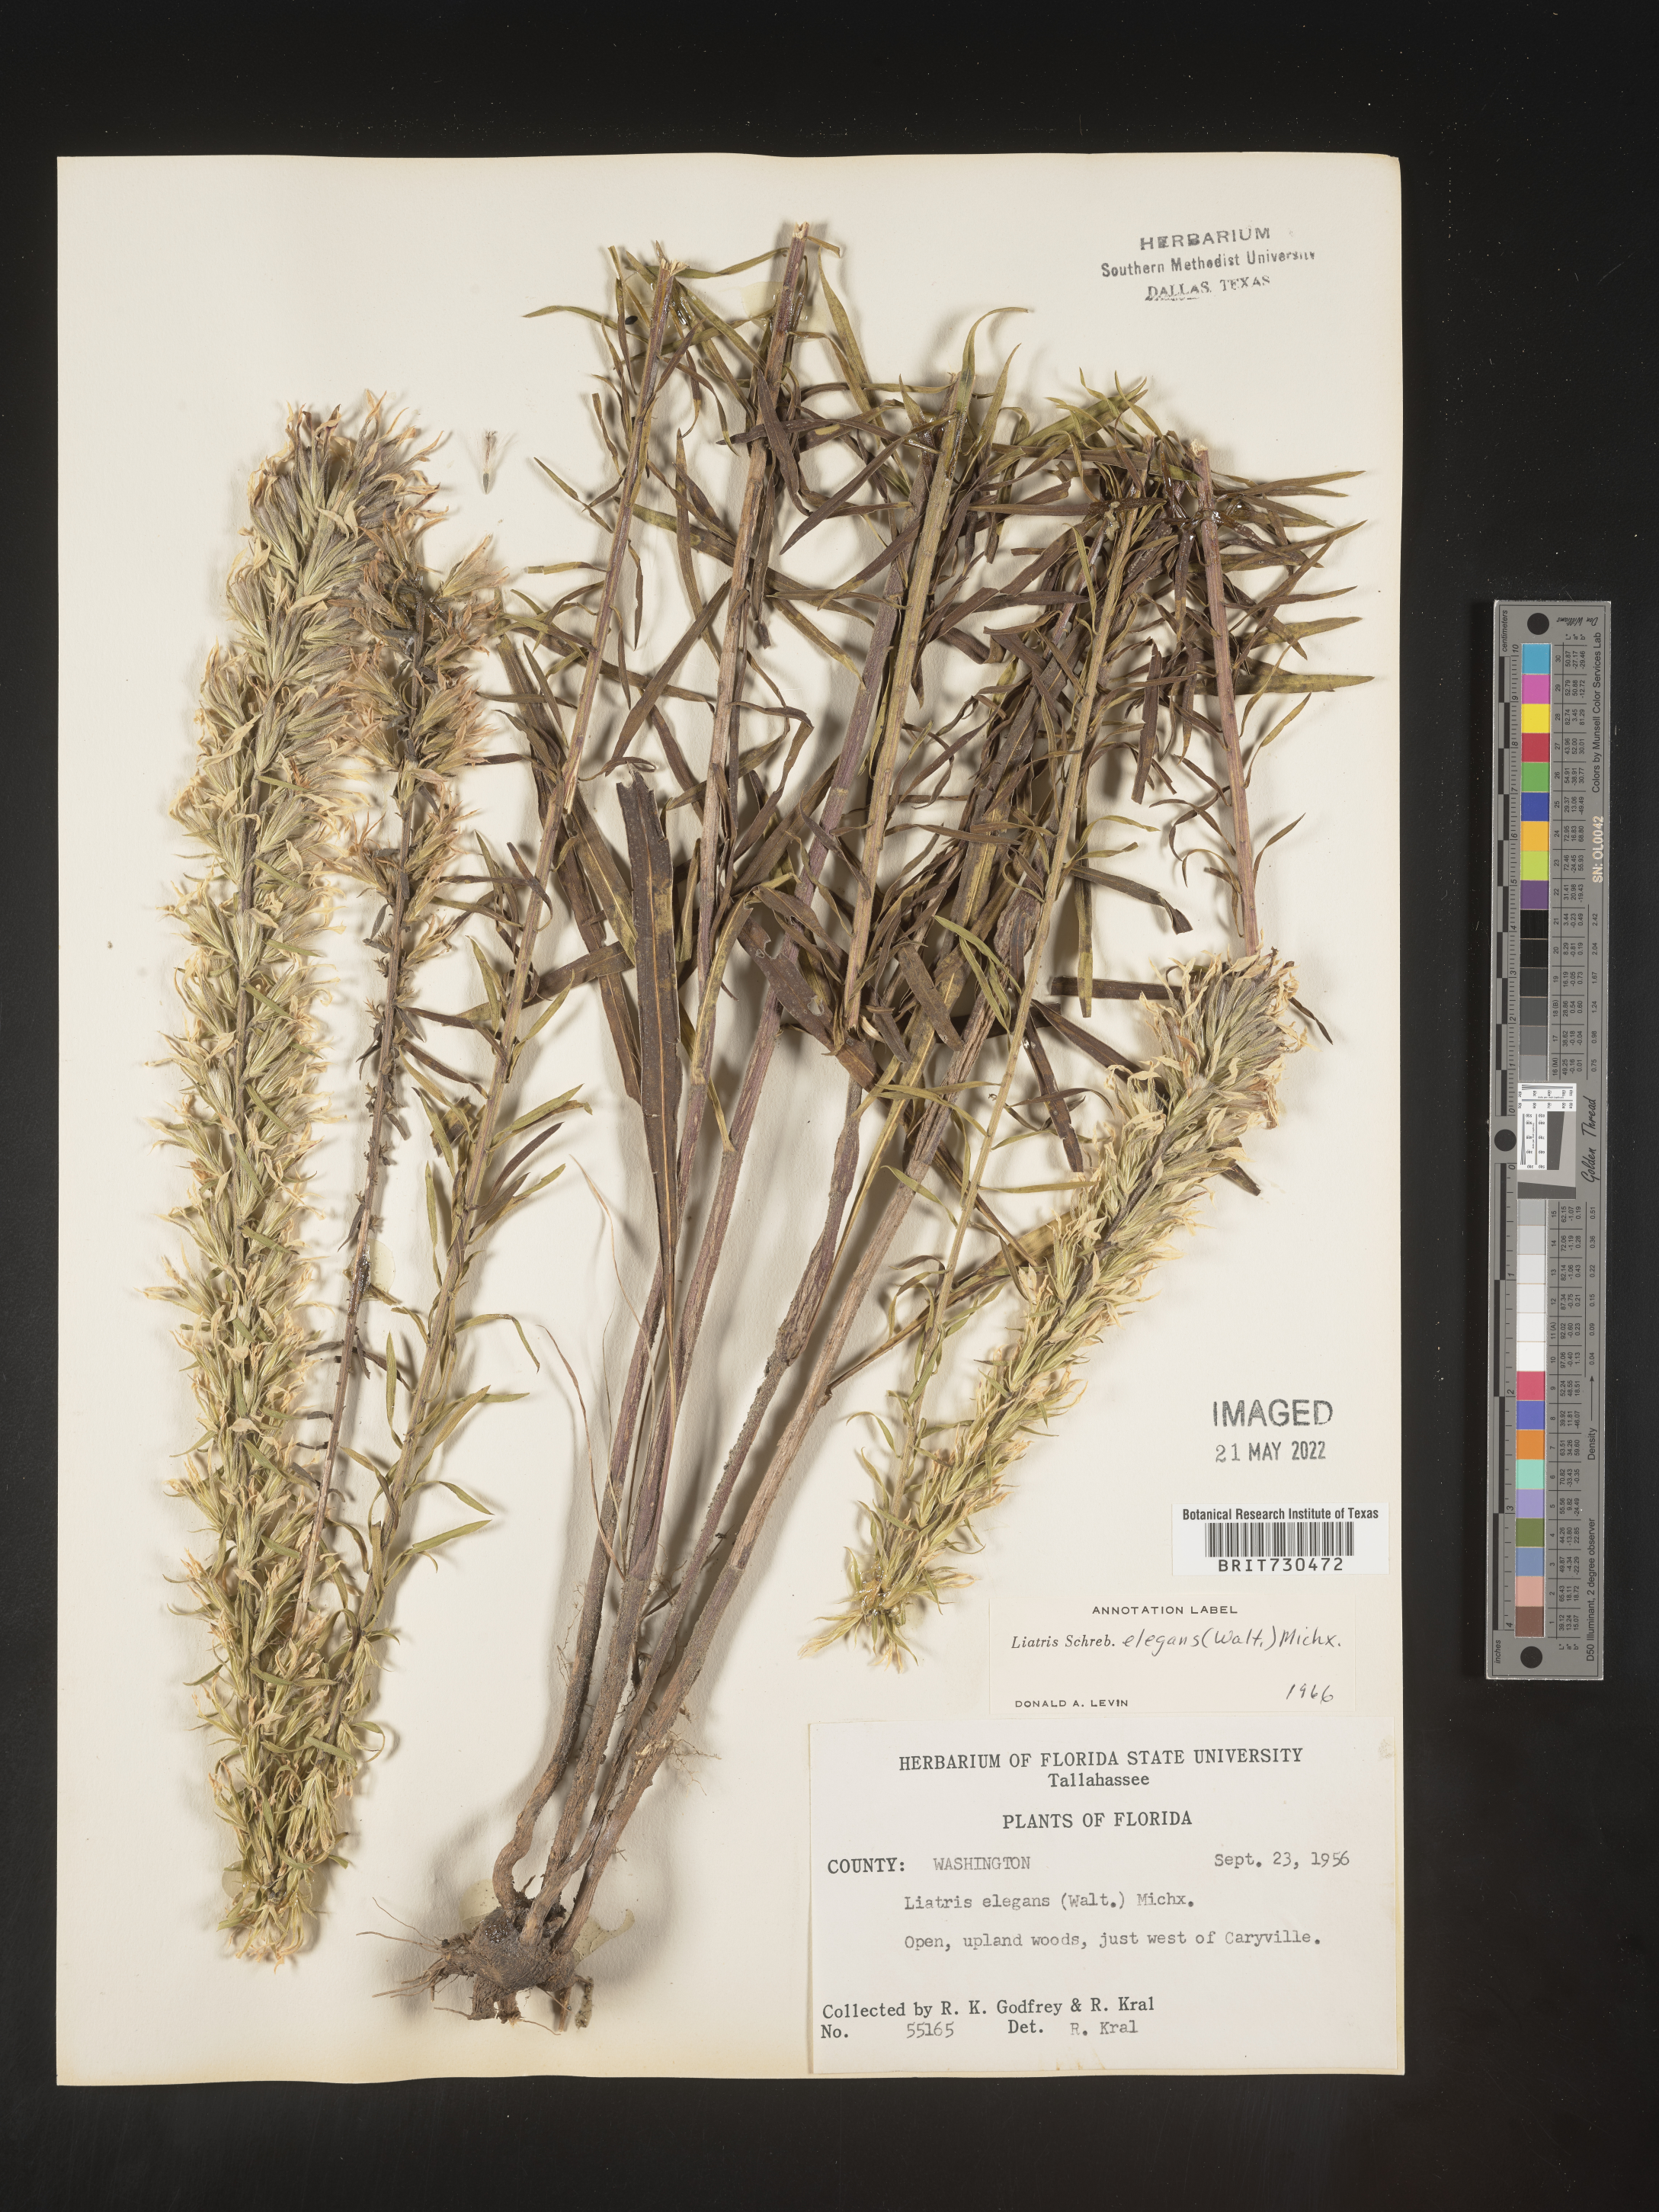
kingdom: Plantae
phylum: Tracheophyta
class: Magnoliopsida
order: Asterales
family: Asteraceae
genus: Liatris
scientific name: Liatris elegans
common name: Pinkscale gayfeather
